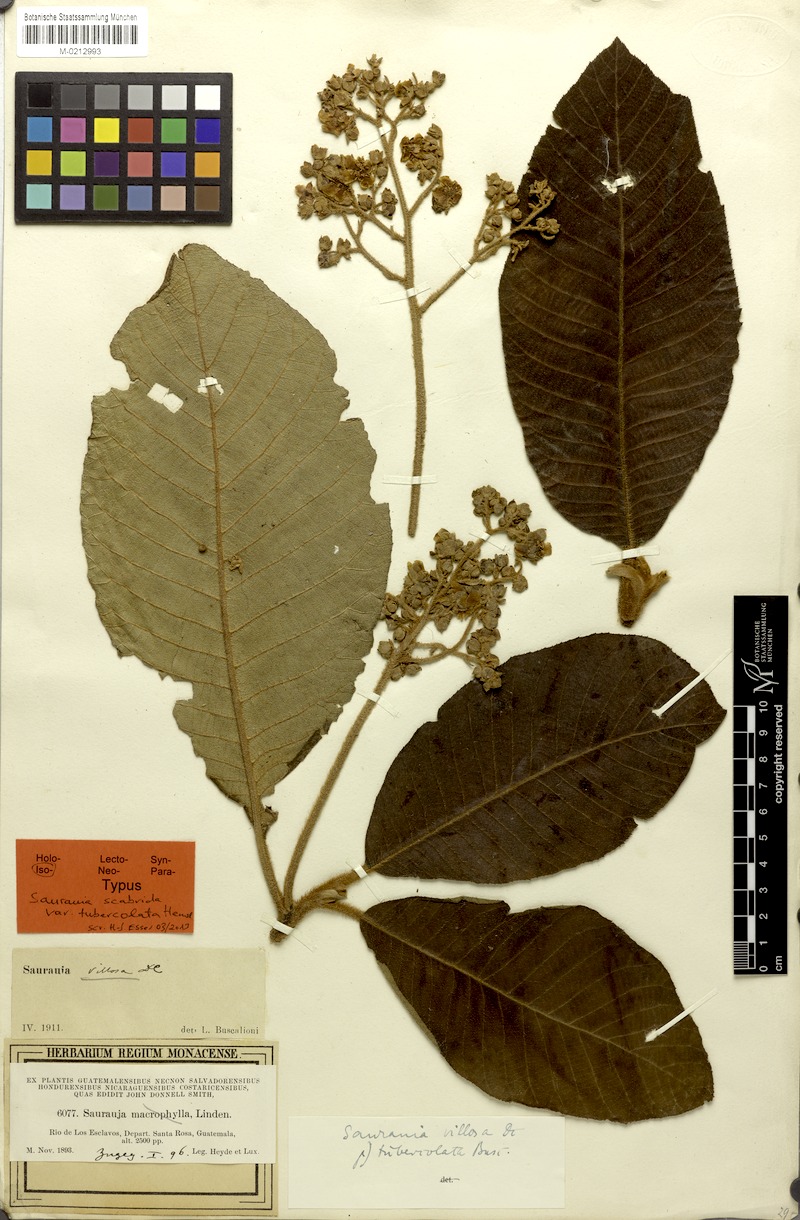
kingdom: Plantae
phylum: Tracheophyta
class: Magnoliopsida
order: Ericales
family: Actinidiaceae
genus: Saurauia
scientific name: Saurauia scabrida
